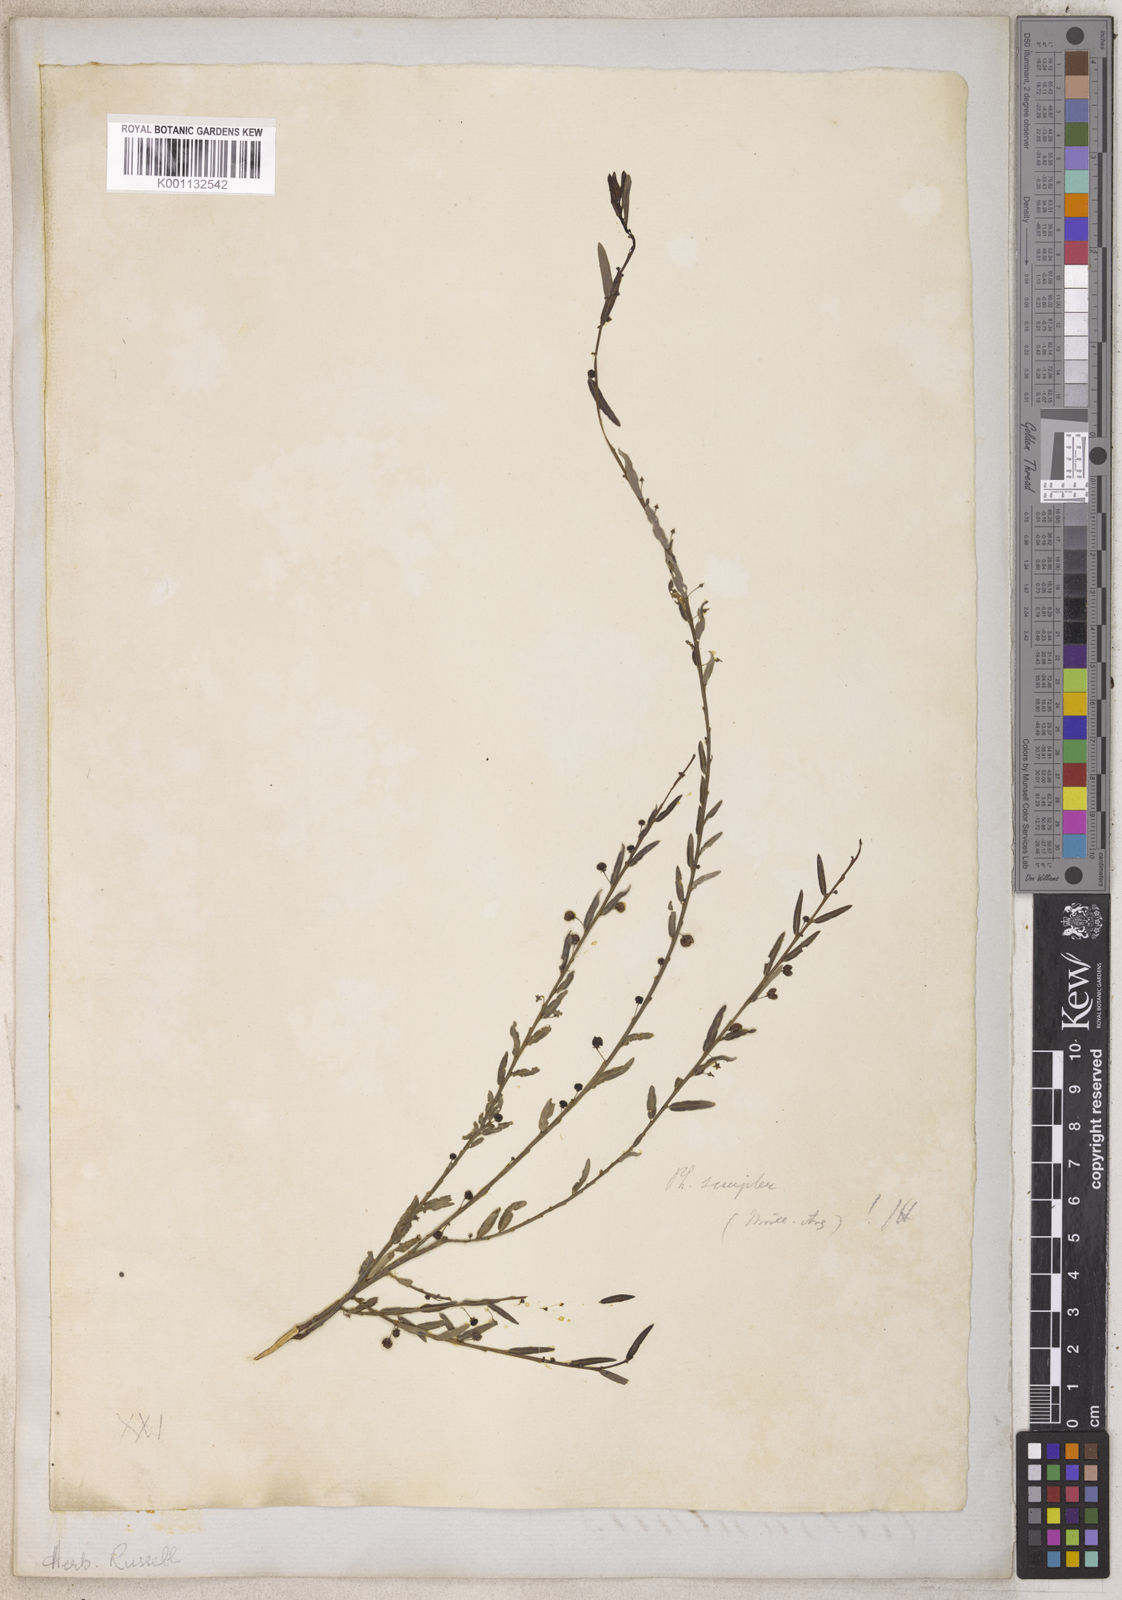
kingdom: Plantae
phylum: Tracheophyta
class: Magnoliopsida
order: Malpighiales
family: Phyllanthaceae
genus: Phyllanthus
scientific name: Phyllanthus
